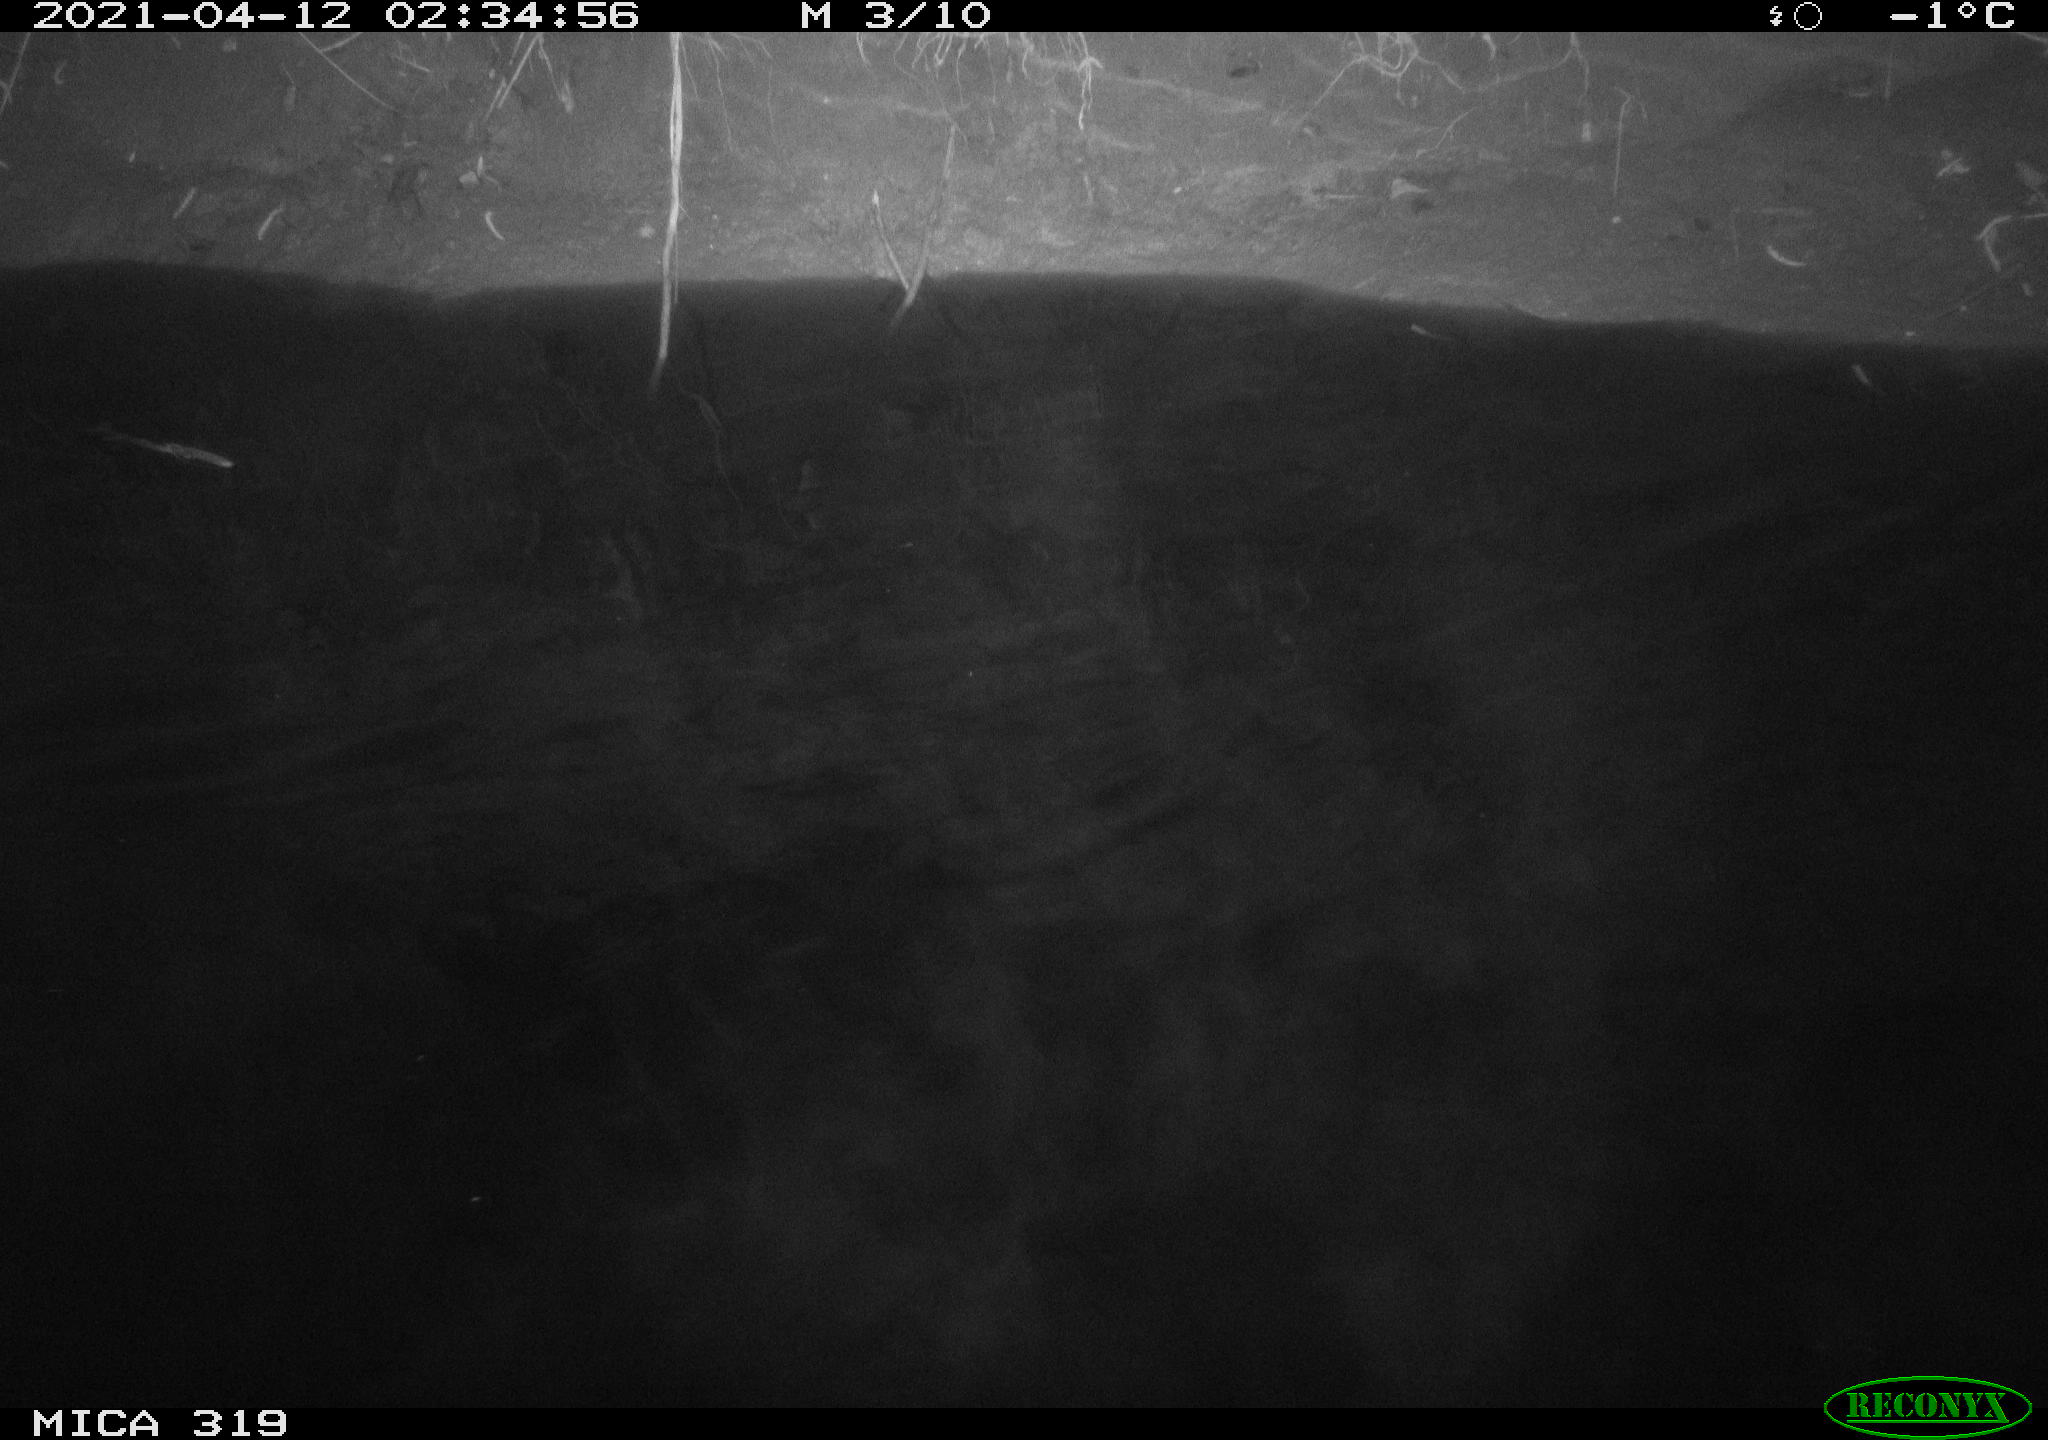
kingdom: Animalia
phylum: Chordata
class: Aves
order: Anseriformes
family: Anatidae
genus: Anas
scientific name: Anas platyrhynchos
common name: Mallard
